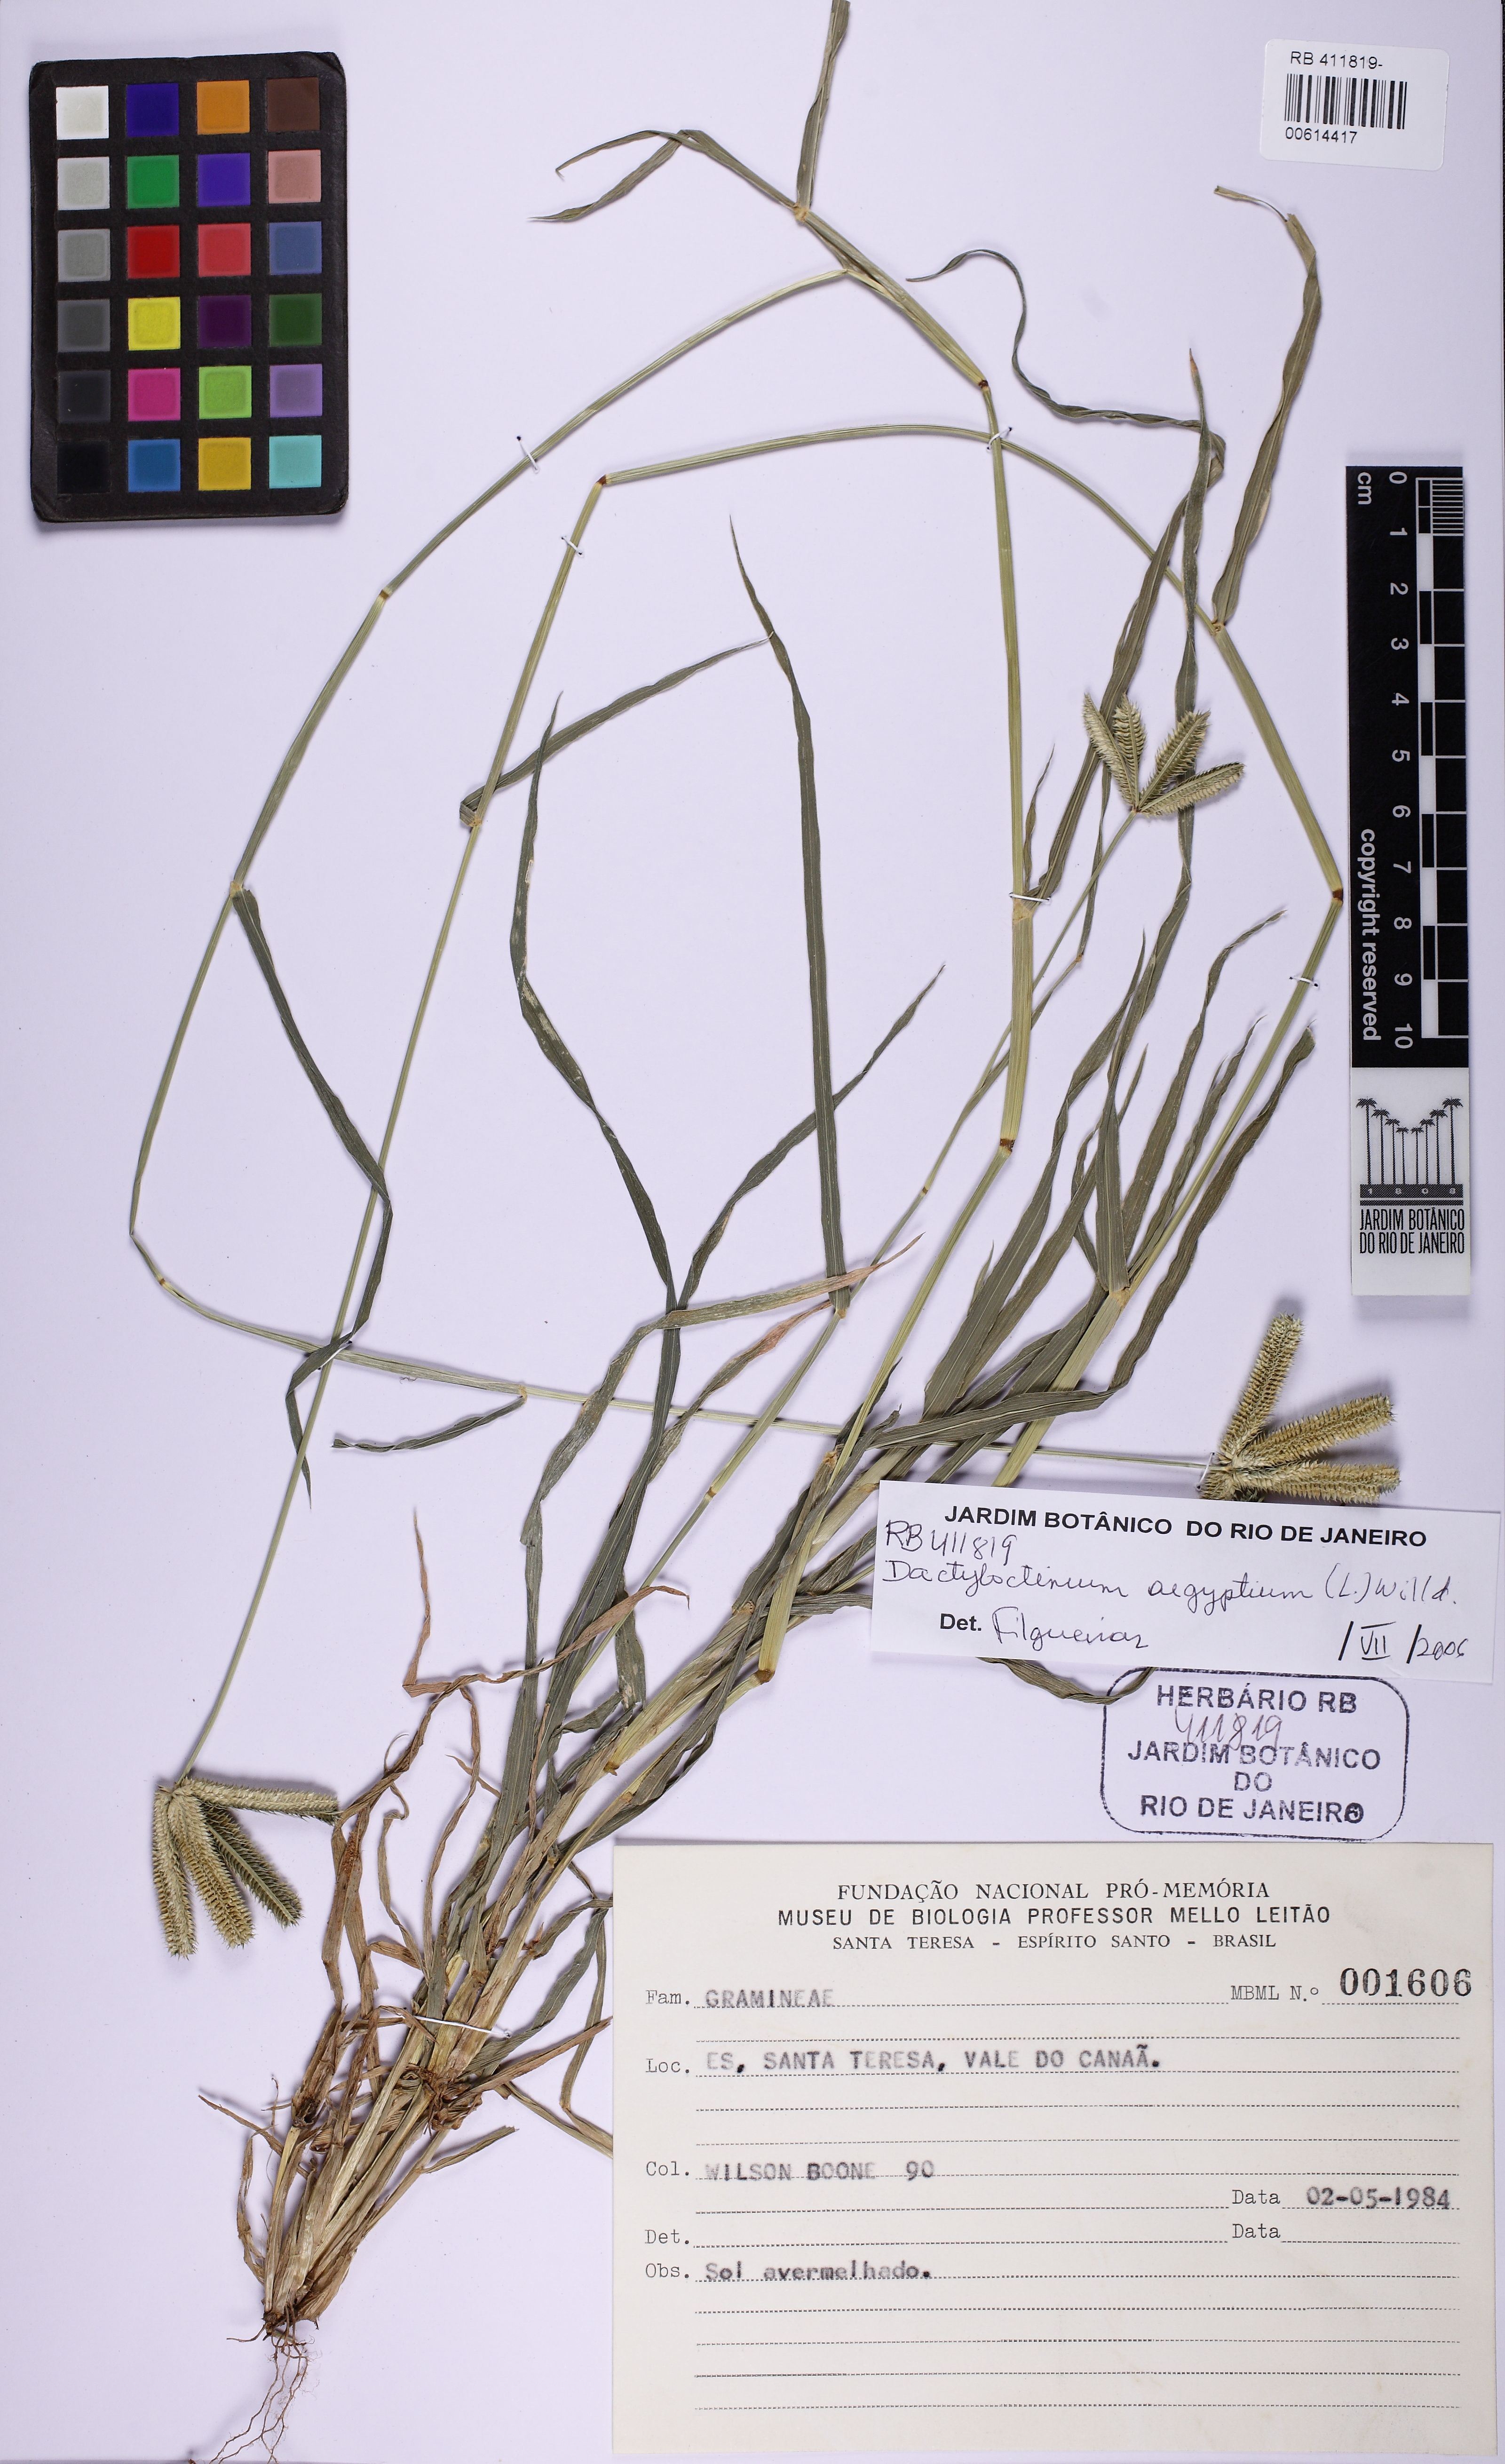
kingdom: Plantae
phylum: Tracheophyta
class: Liliopsida
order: Poales
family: Poaceae
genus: Dactyloctenium
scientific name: Dactyloctenium aegyptium
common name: Egyptian grass
